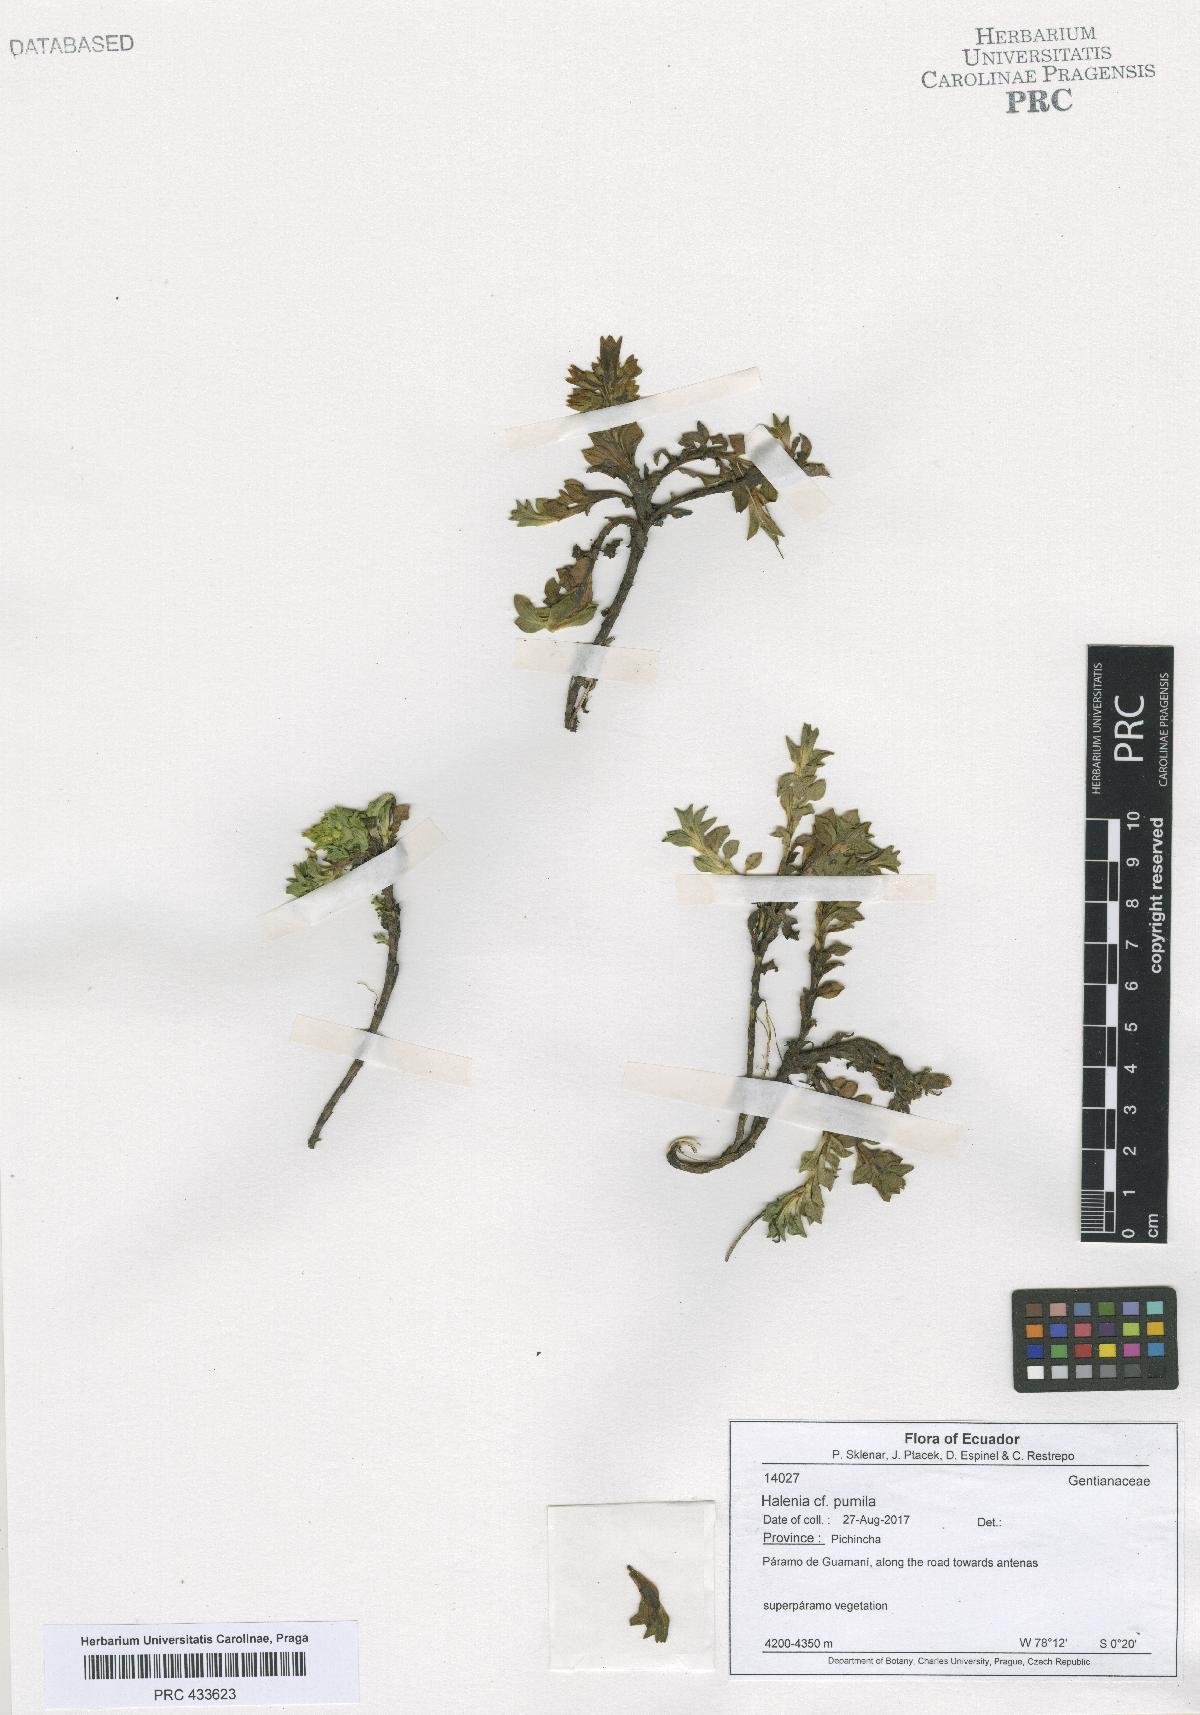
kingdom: Plantae
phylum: Tracheophyta
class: Magnoliopsida
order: Gentianales
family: Gentianaceae
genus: Halenia
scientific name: Halenia
